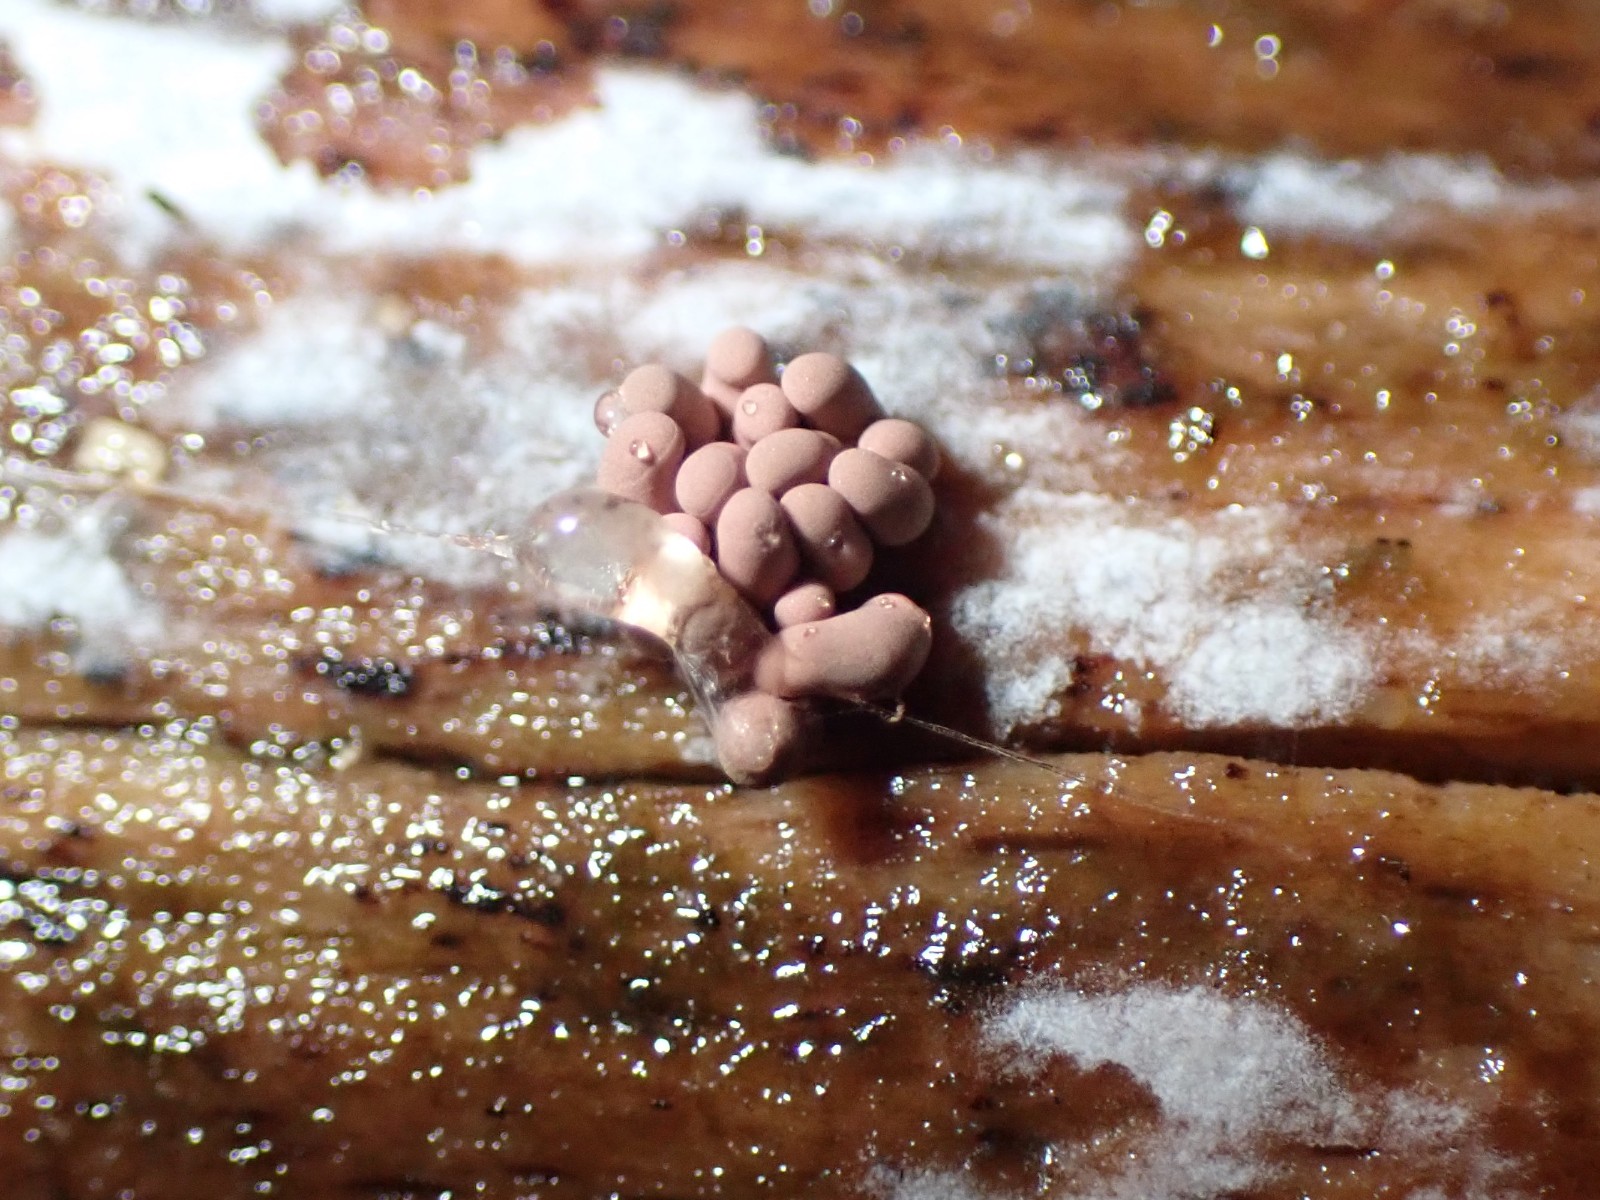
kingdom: Protozoa
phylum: Mycetozoa
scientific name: Mycetozoa
